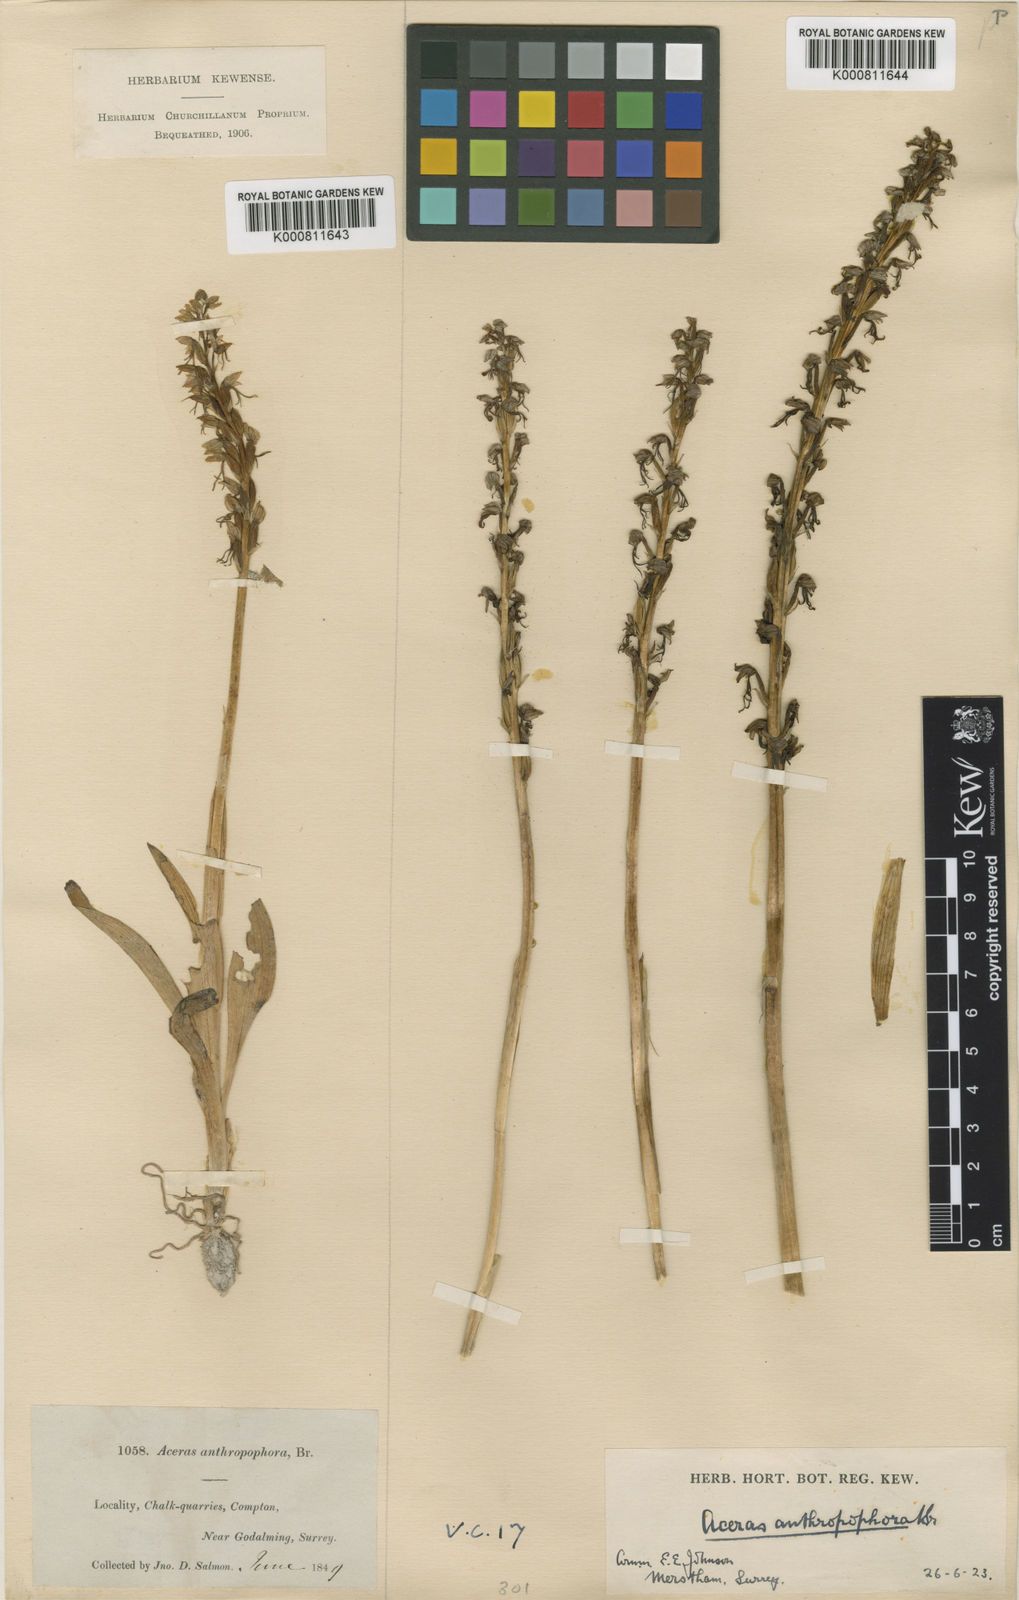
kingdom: Plantae
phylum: Tracheophyta
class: Liliopsida
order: Asparagales
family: Orchidaceae
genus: Orchis
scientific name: Orchis
